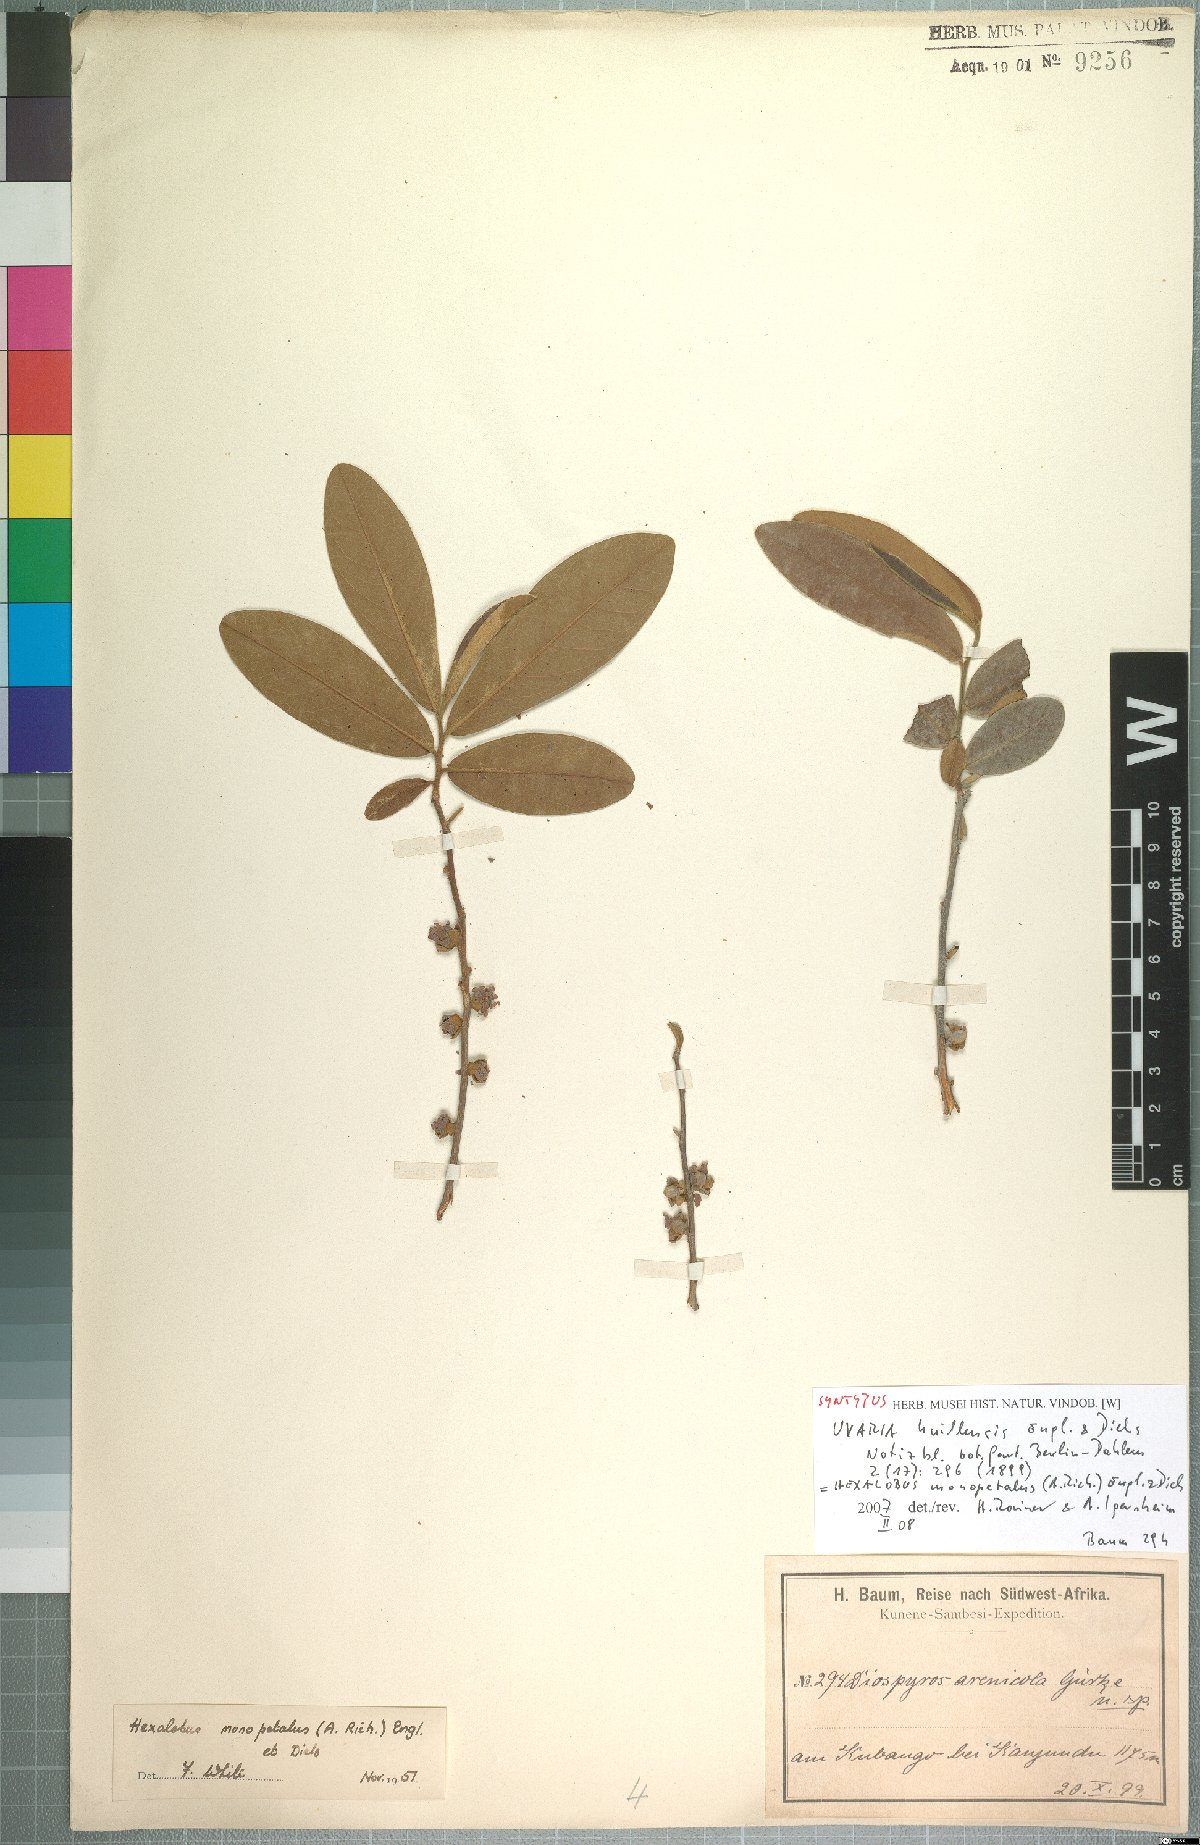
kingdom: Plantae
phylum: Tracheophyta
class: Magnoliopsida
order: Magnoliales
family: Annonaceae
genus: Hexalobus
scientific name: Hexalobus monopetalus
